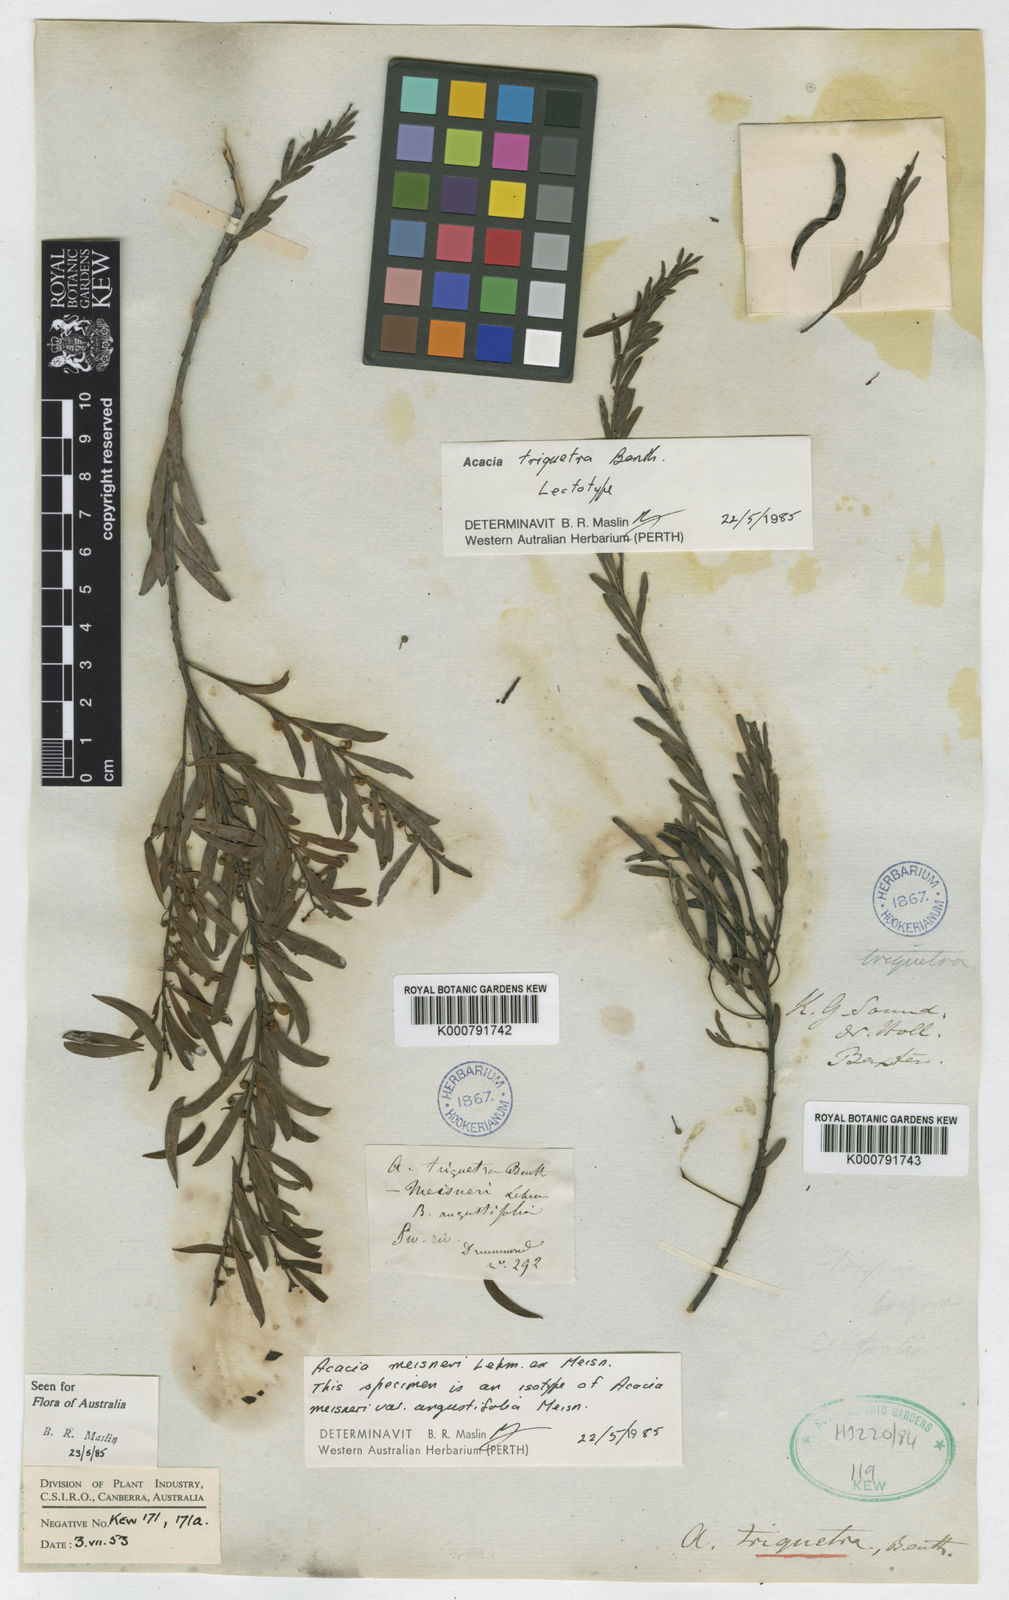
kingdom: Plantae
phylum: Tracheophyta
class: Magnoliopsida
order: Fabales
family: Fabaceae
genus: Acacia
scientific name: Acacia triquetra
